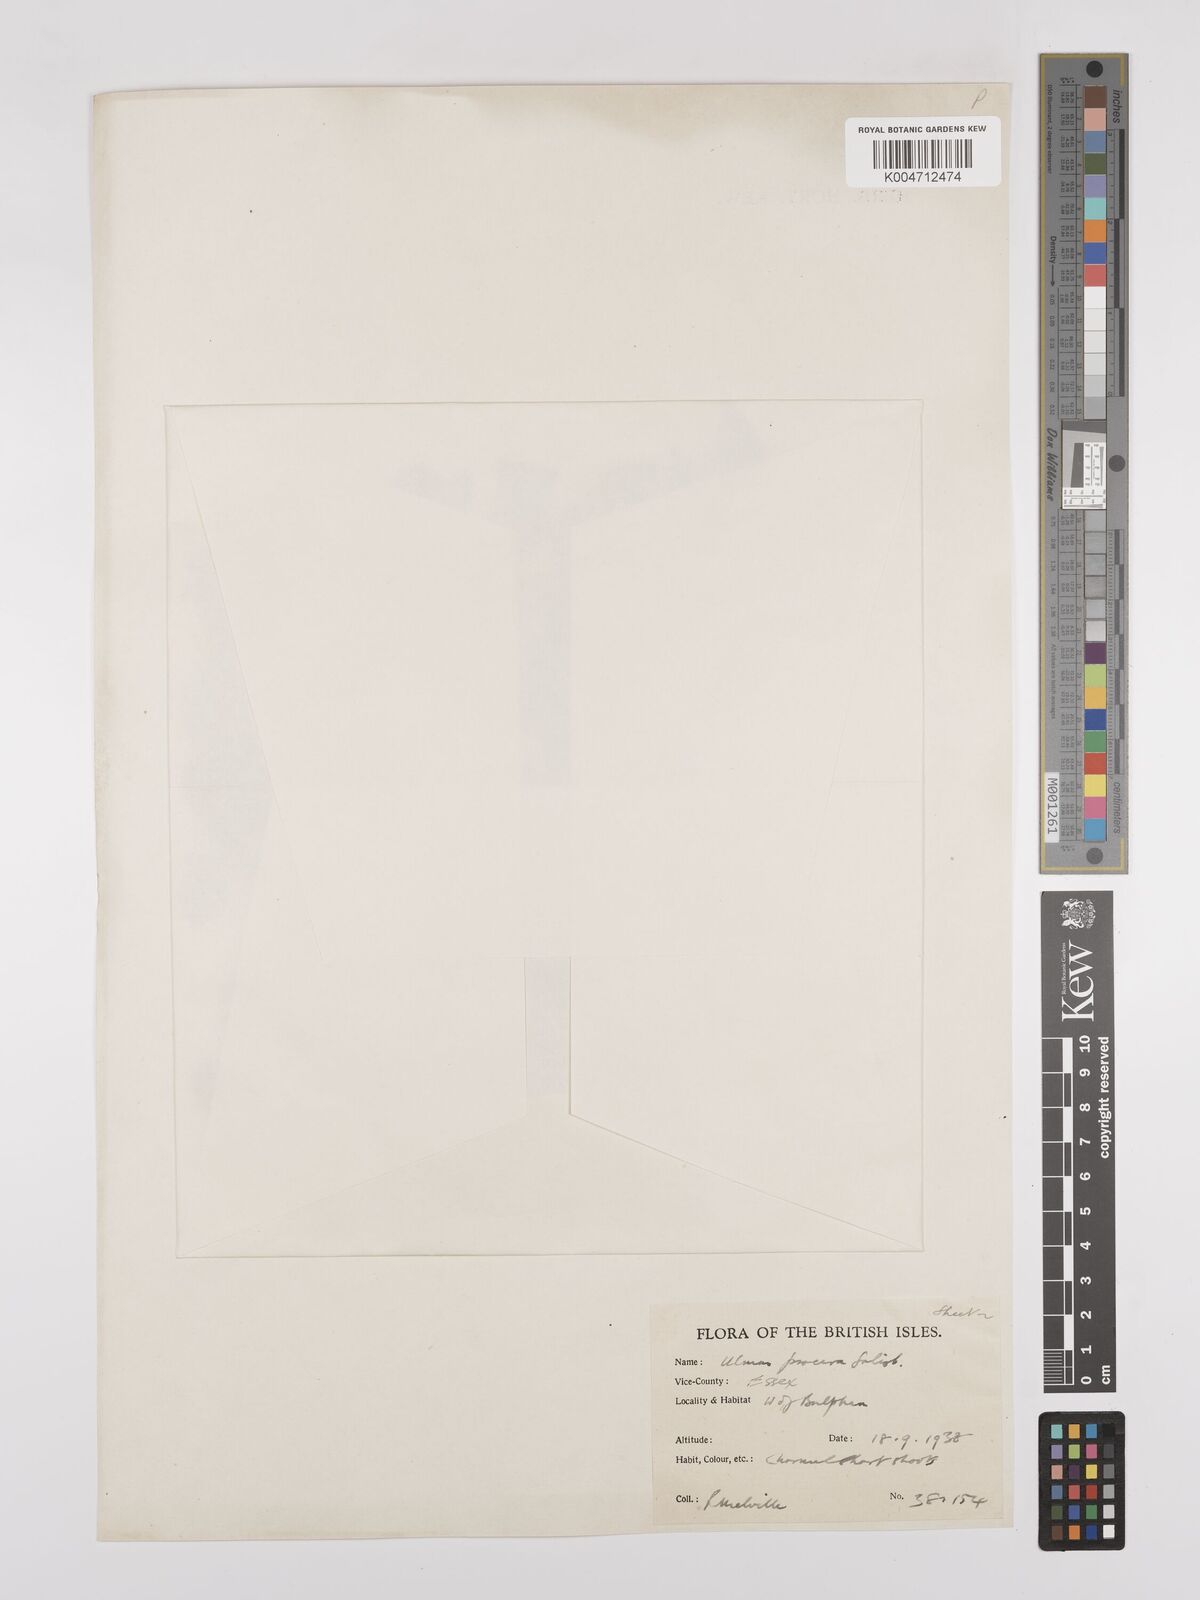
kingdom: Plantae
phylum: Tracheophyta
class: Magnoliopsida
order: Rosales
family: Ulmaceae
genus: Ulmus
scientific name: Ulmus minor
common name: Small-leaved elm
